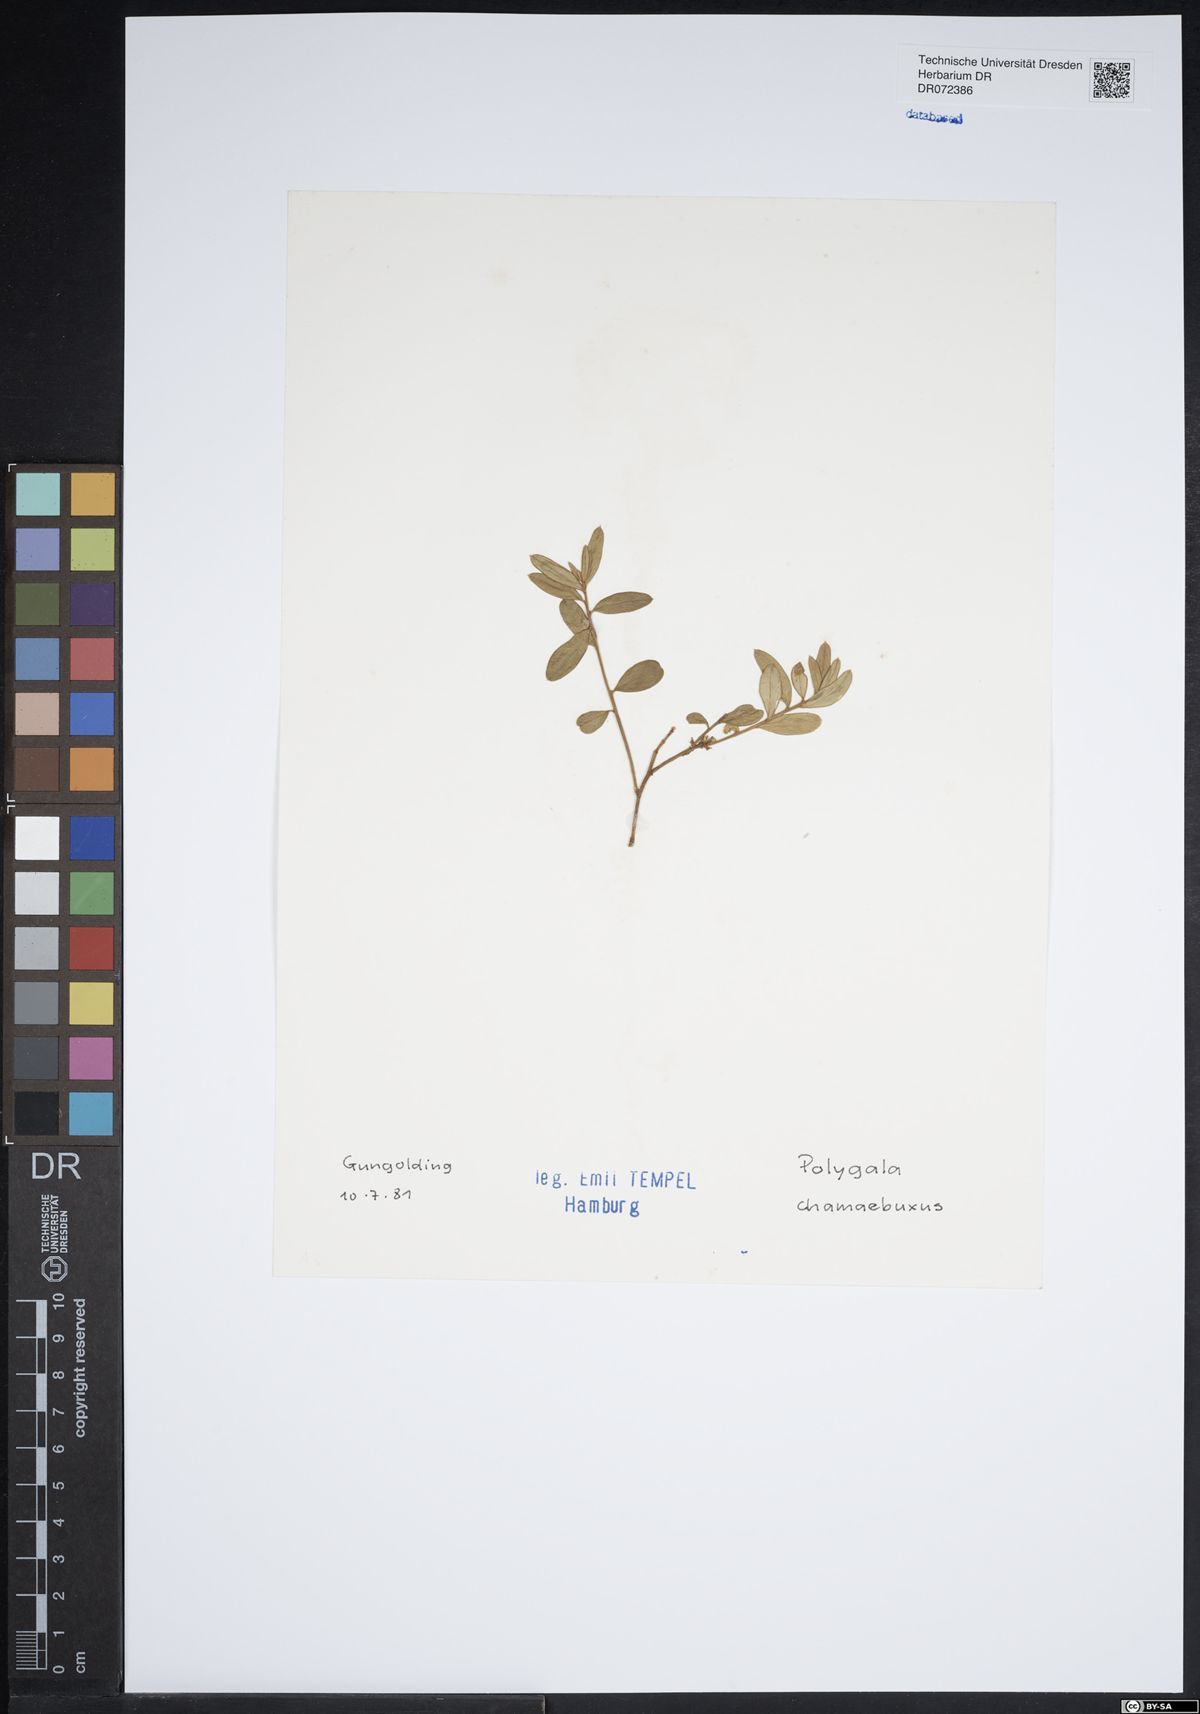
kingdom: Plantae
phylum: Tracheophyta
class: Magnoliopsida
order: Fabales
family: Polygalaceae
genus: Polygaloides
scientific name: Polygaloides chamaebuxus
